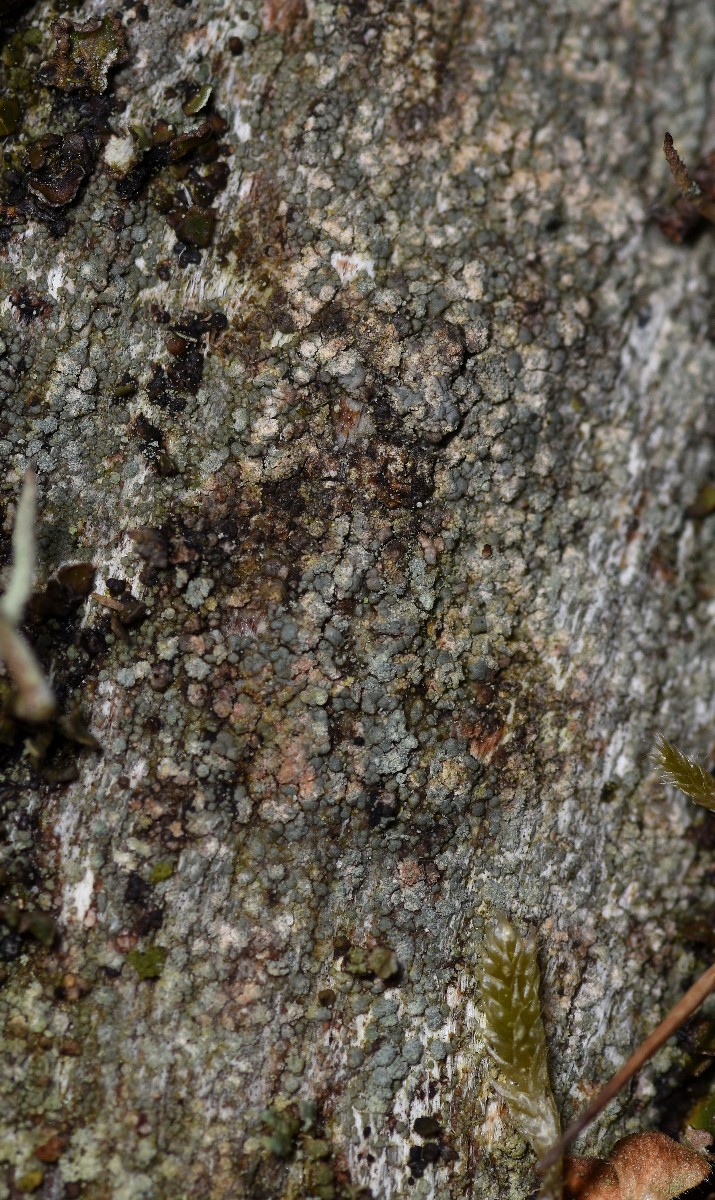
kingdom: Fungi
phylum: Ascomycota
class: Lecanoromycetes
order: Baeomycetales
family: Trapeliaceae
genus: Trapeliopsis
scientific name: Trapeliopsis granulosa
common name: forskelligfarvet skivelav
